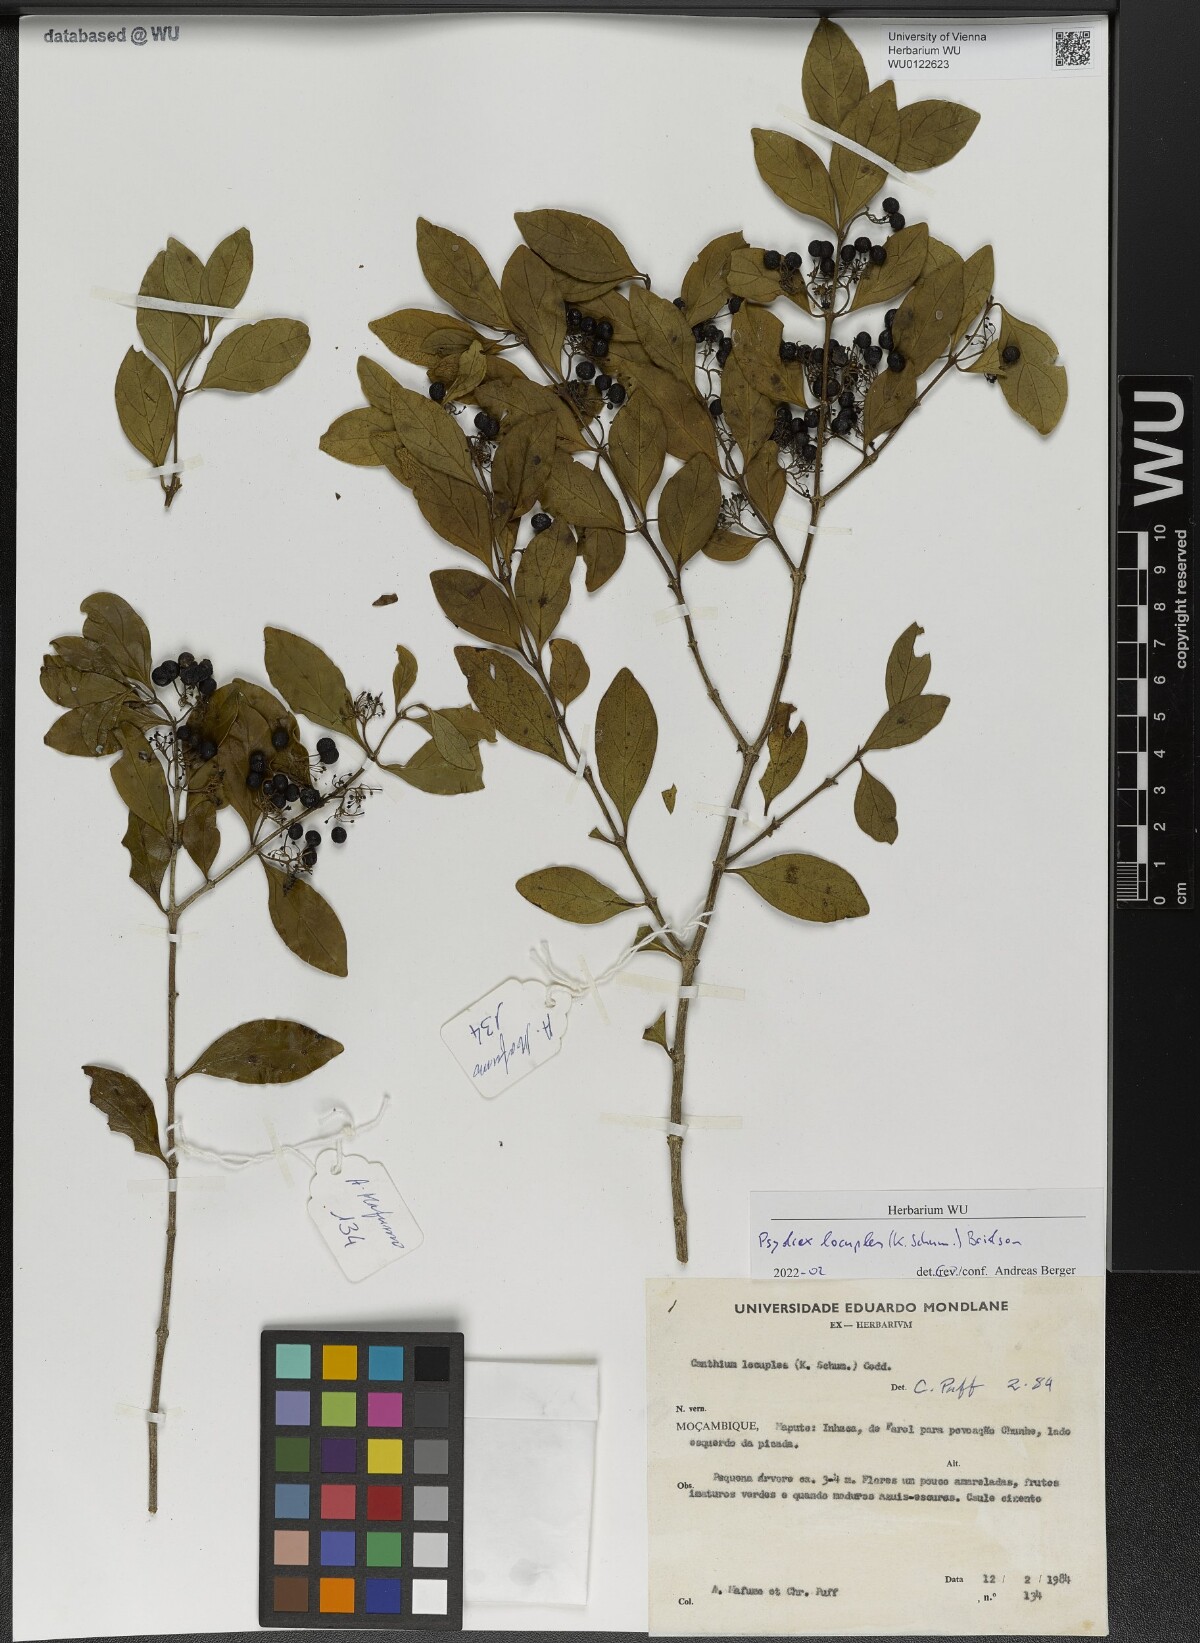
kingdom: Plantae
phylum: Tracheophyta
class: Magnoliopsida
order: Gentianales
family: Rubiaceae
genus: Psydrax
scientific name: Psydrax locuples
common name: Sand quar
